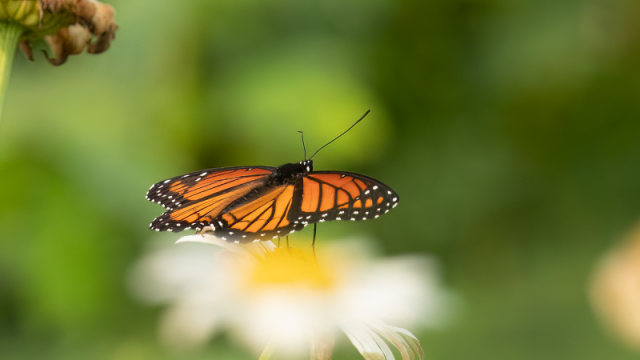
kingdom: Animalia
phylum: Arthropoda
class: Insecta
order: Lepidoptera
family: Nymphalidae
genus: Limenitis
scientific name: Limenitis archippus
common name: Viceroy
